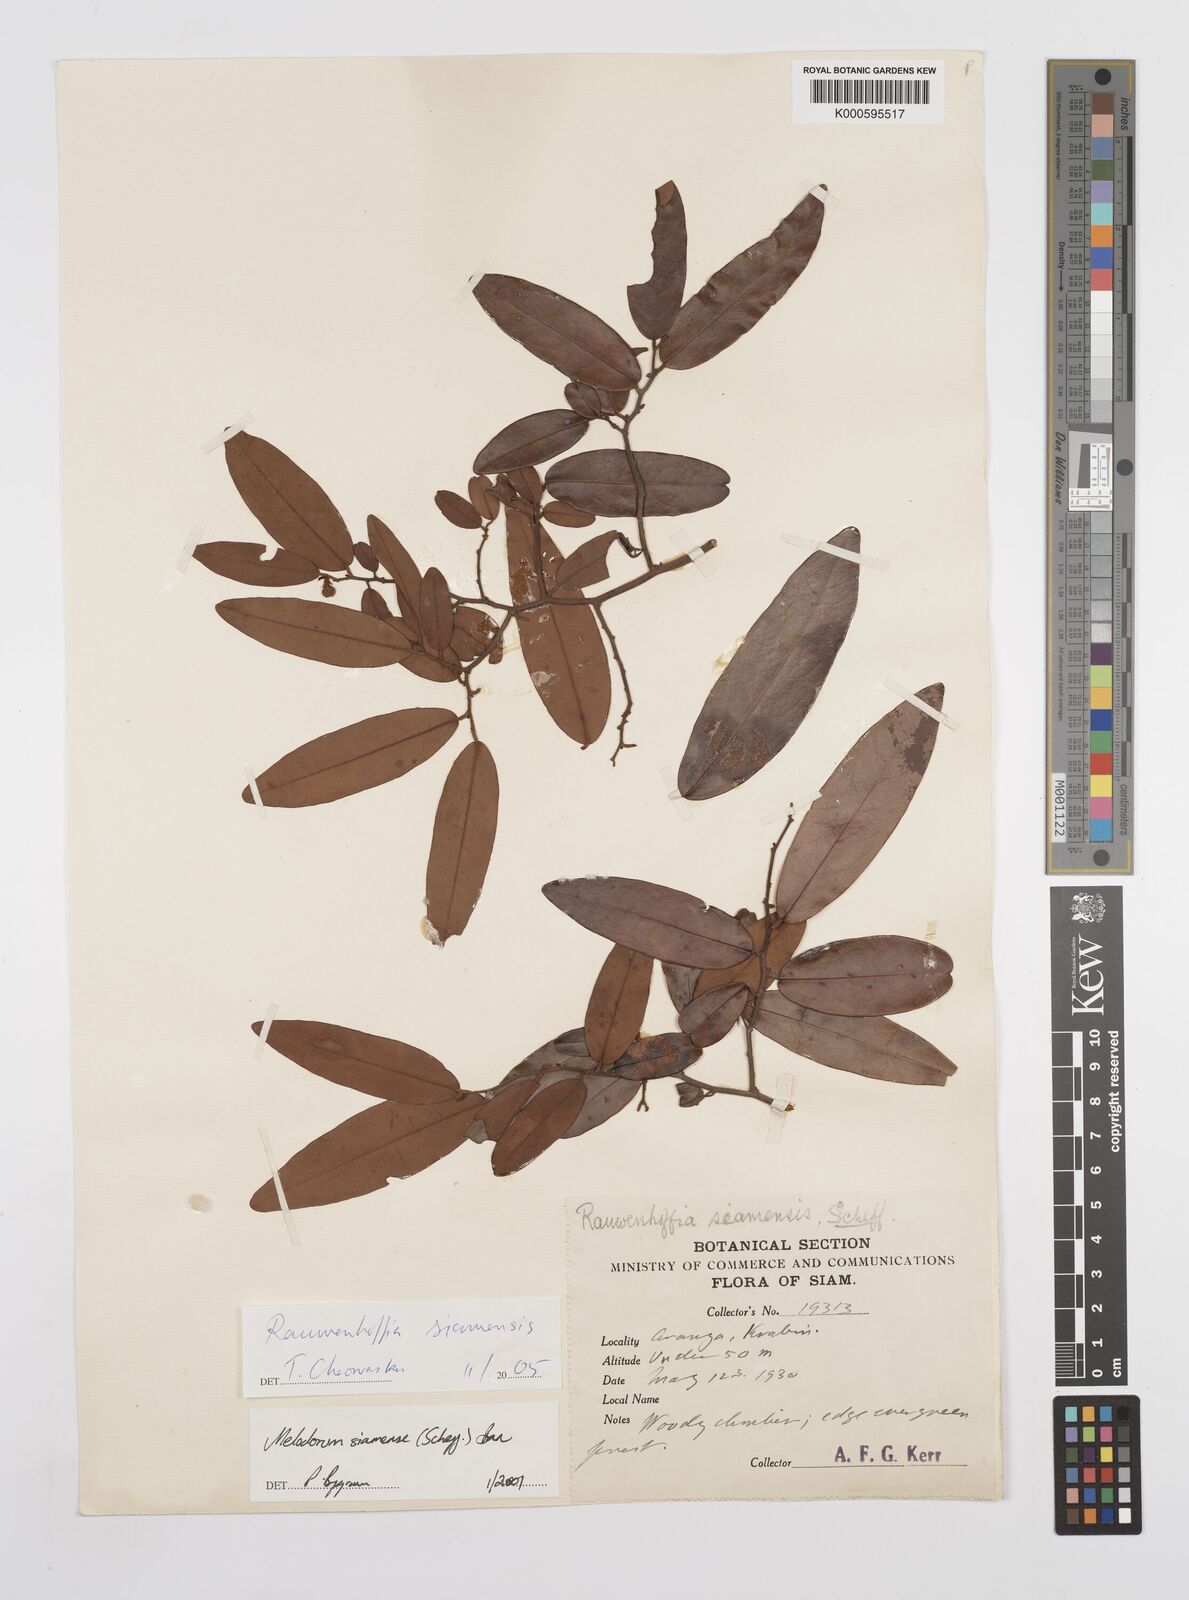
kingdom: Plantae
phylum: Tracheophyta
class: Magnoliopsida
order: Magnoliales
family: Annonaceae
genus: Uvaria
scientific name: Uvaria siamensis
